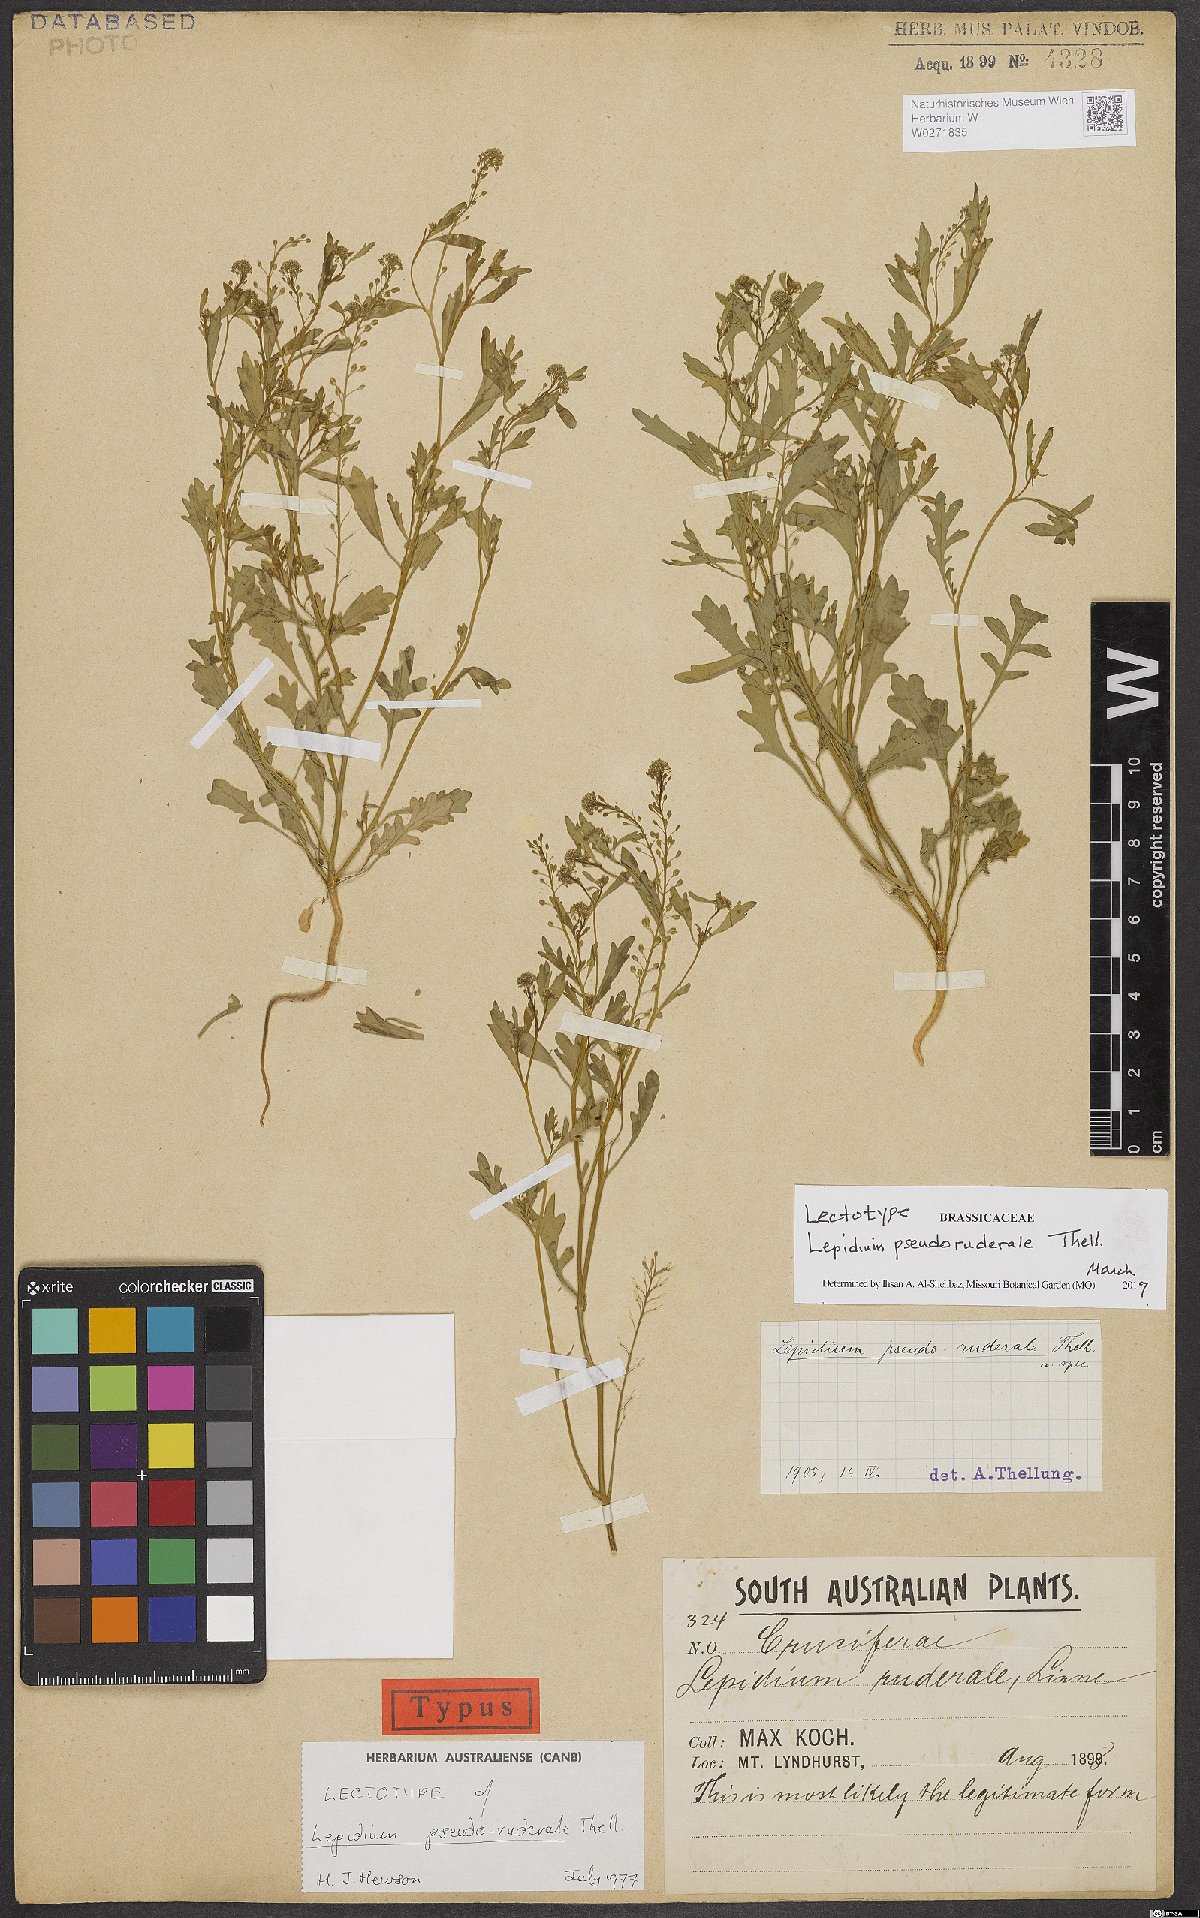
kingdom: Plantae
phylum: Tracheophyta
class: Magnoliopsida
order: Brassicales
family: Brassicaceae
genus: Lepidium
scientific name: Lepidium pseudoruderale
